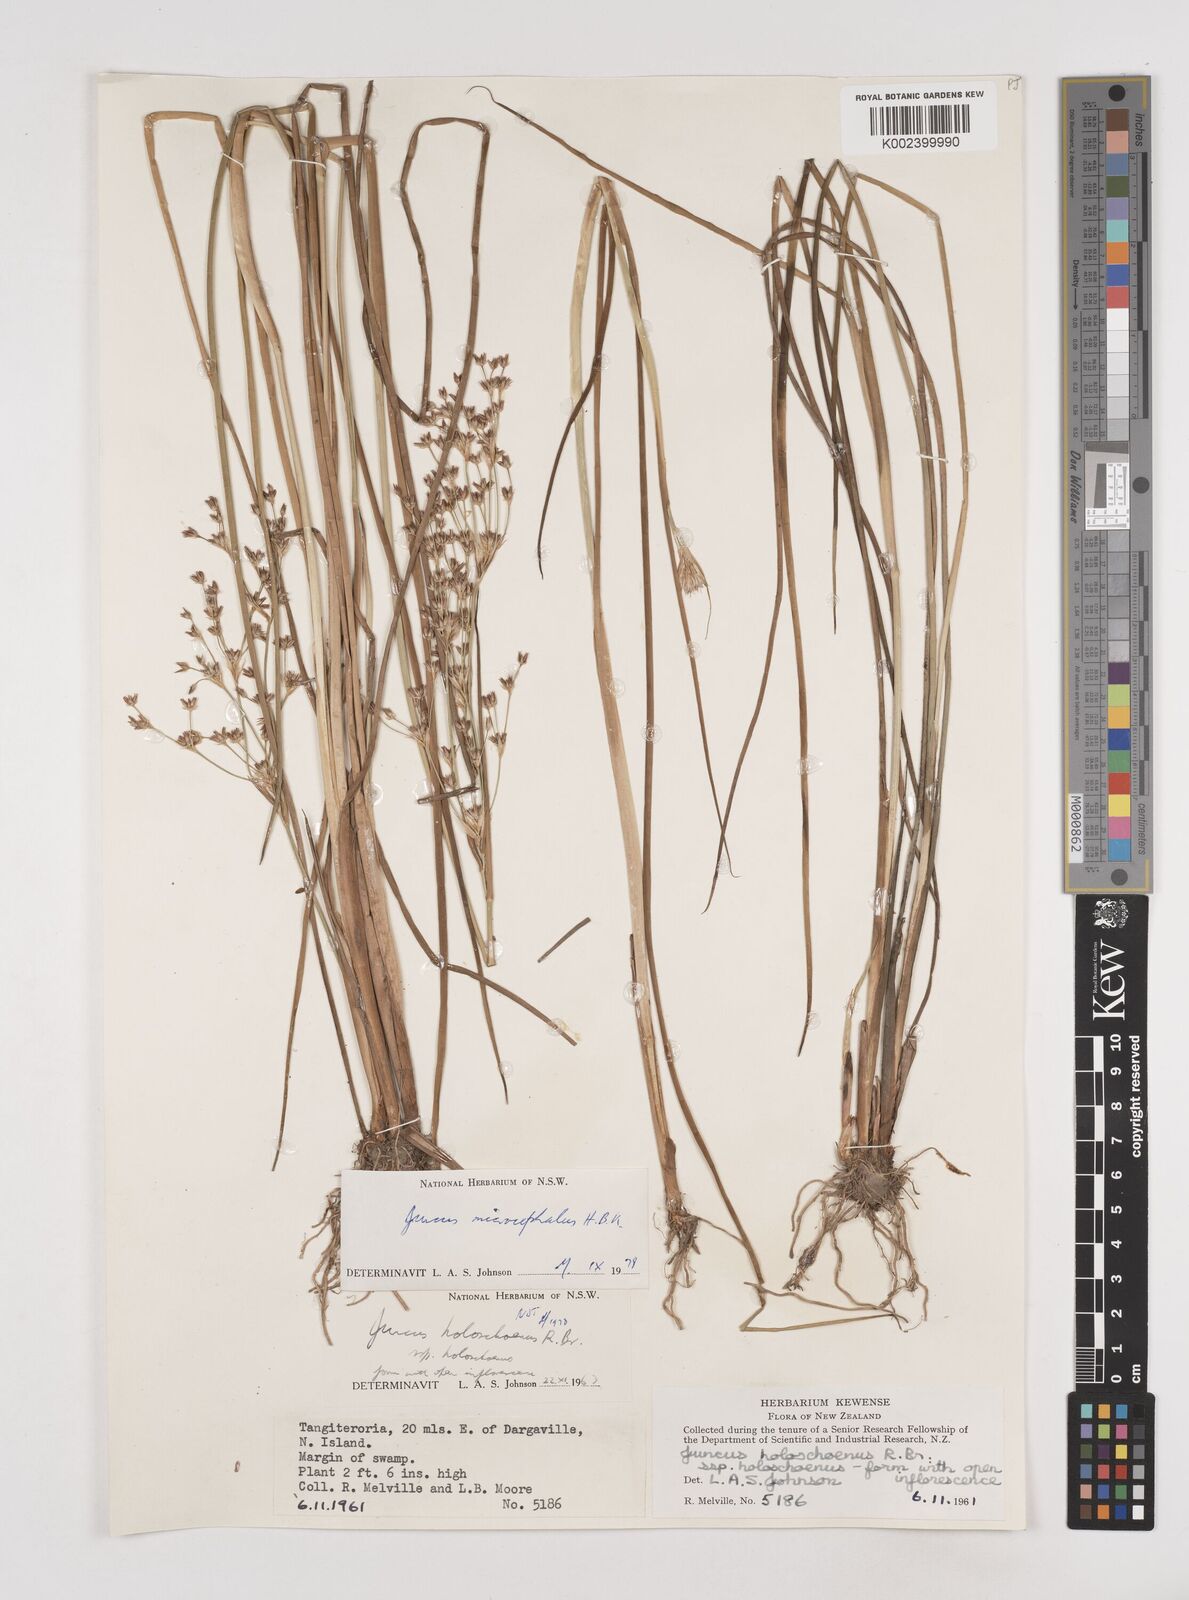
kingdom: Plantae
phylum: Tracheophyta
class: Liliopsida
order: Poales
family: Juncaceae
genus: Juncus
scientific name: Juncus microcephalus
